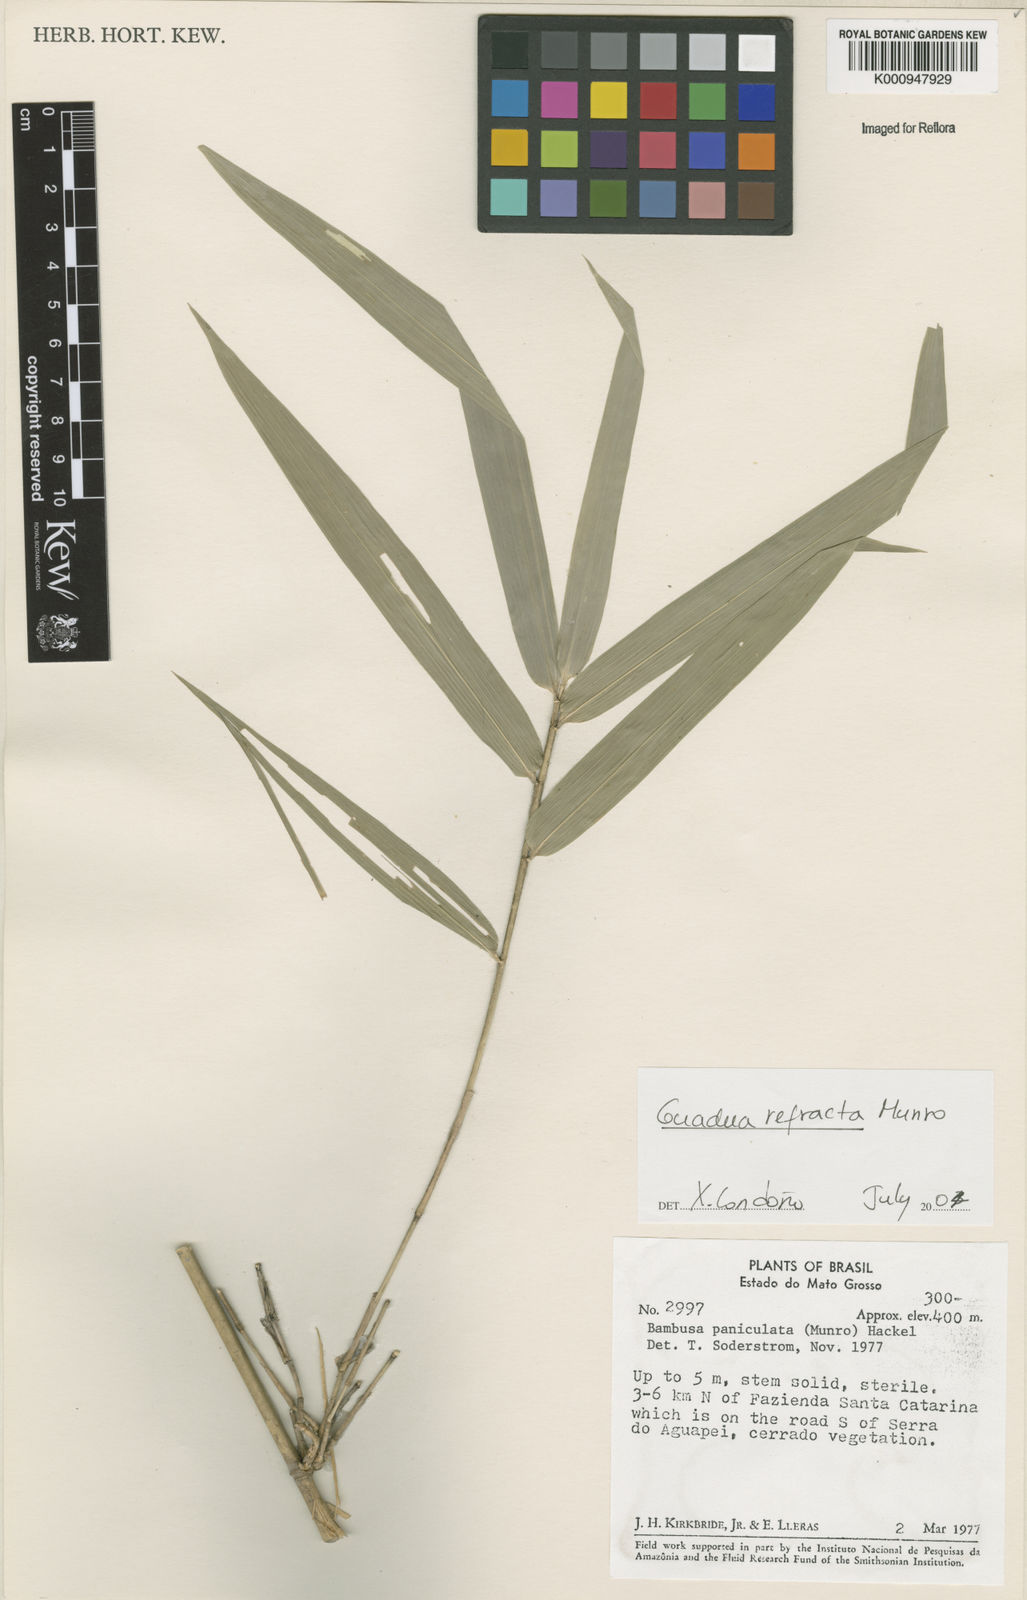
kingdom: Plantae
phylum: Tracheophyta
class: Liliopsida
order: Poales
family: Poaceae
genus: Guadua
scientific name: Guadua
